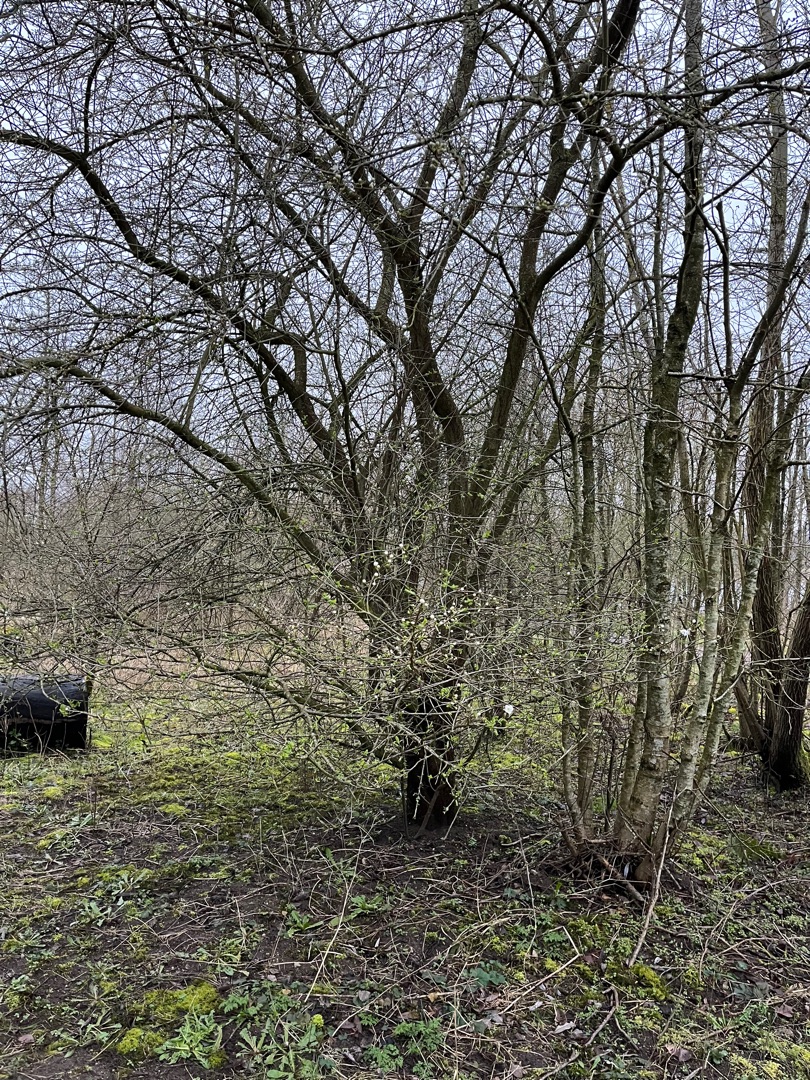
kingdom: Plantae
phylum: Tracheophyta
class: Magnoliopsida
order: Rosales
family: Rosaceae
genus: Prunus
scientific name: Prunus cerasifera
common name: Mirabel
